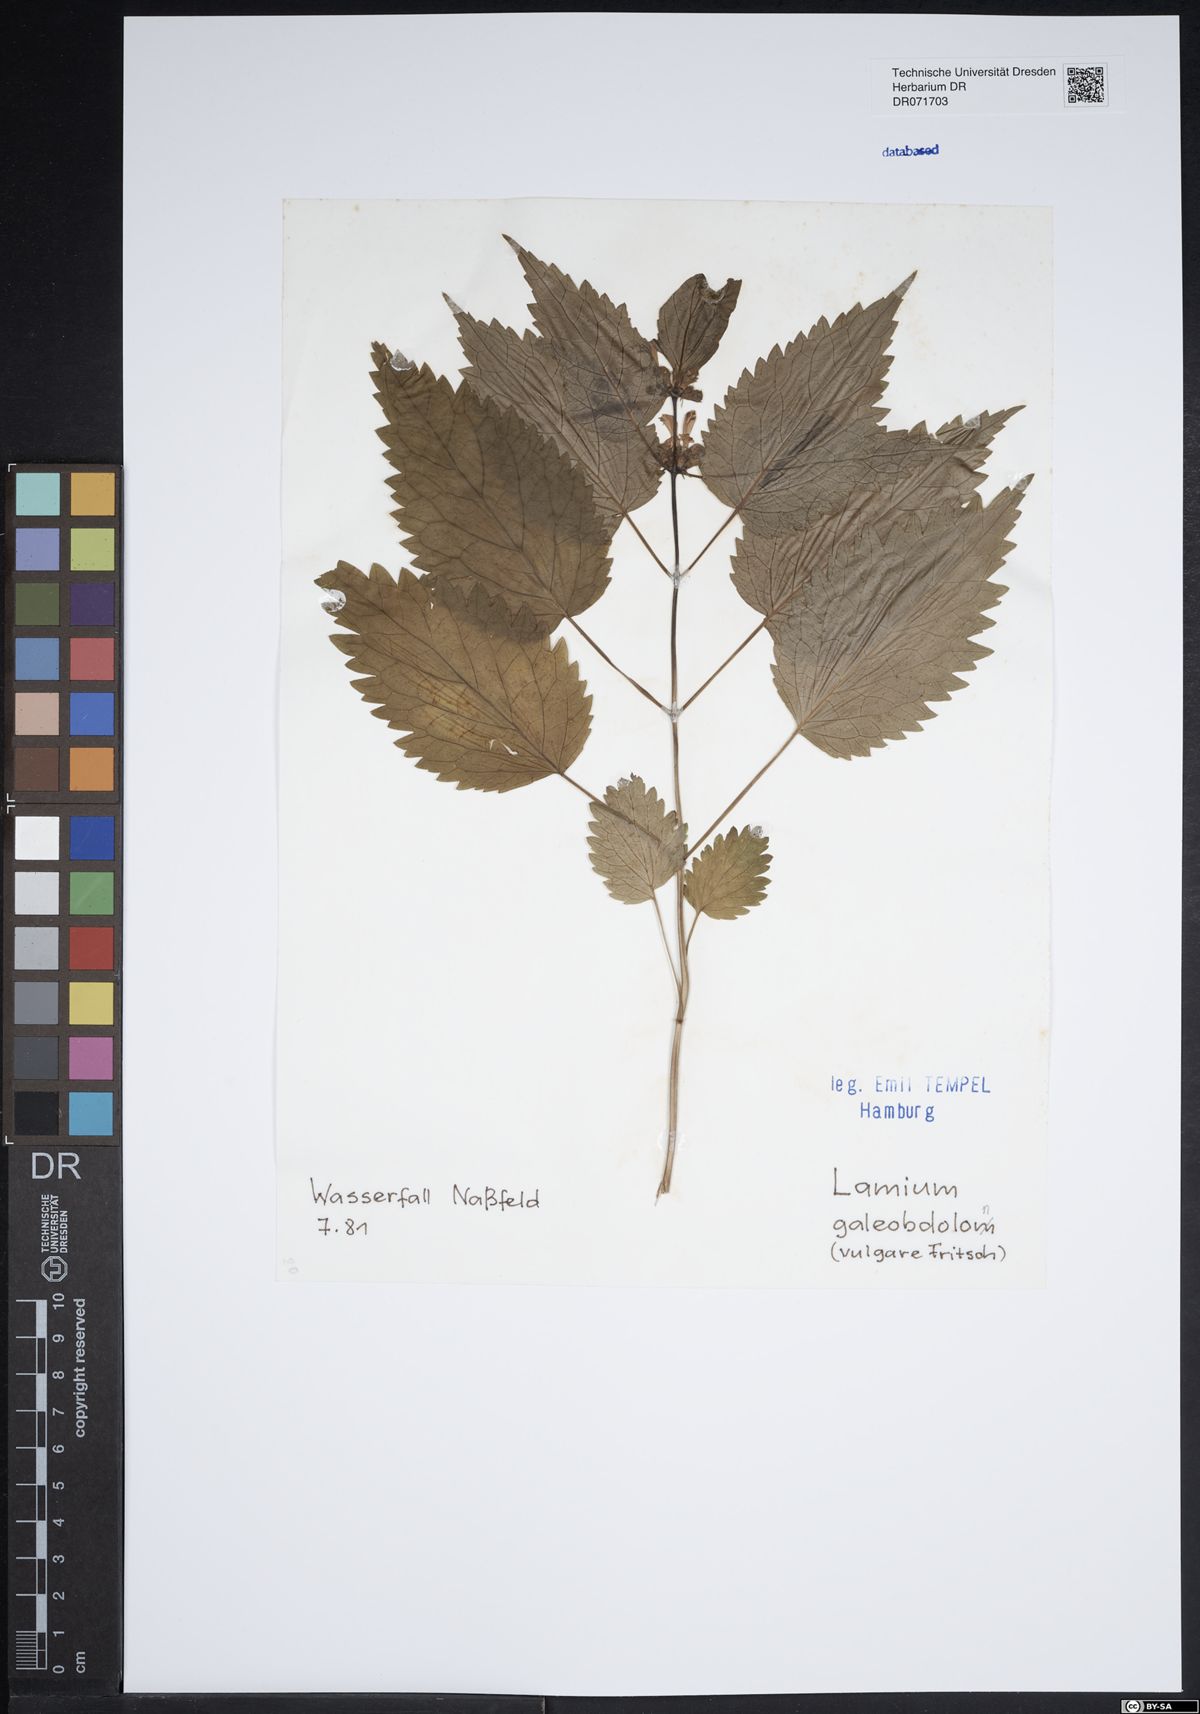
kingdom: Plantae
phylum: Tracheophyta
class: Magnoliopsida
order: Lamiales
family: Lamiaceae
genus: Lamium
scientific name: Lamium galeobdolon
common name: Yellow archangel
